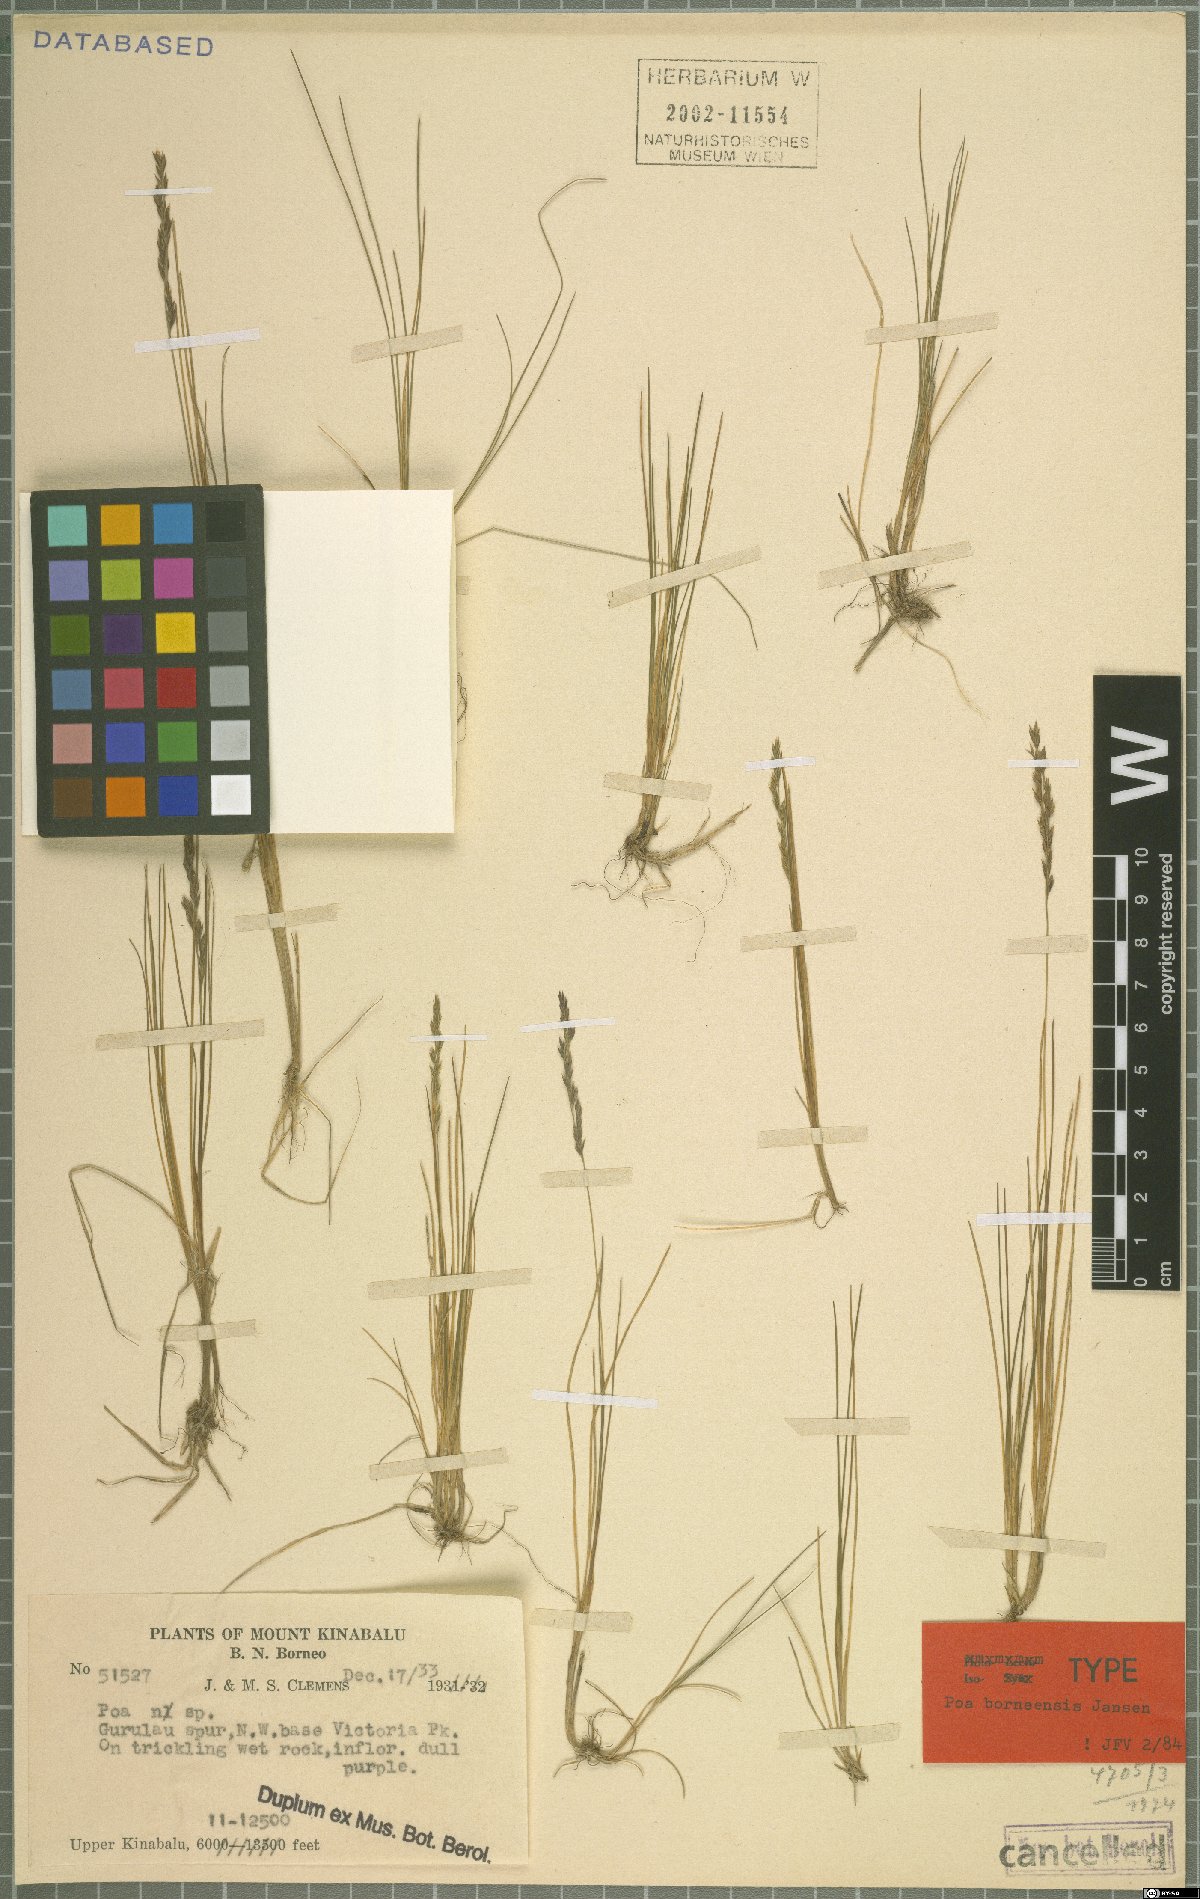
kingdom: Plantae
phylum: Tracheophyta
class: Liliopsida
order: Poales
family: Poaceae
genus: Poa
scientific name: Poa borneensis
